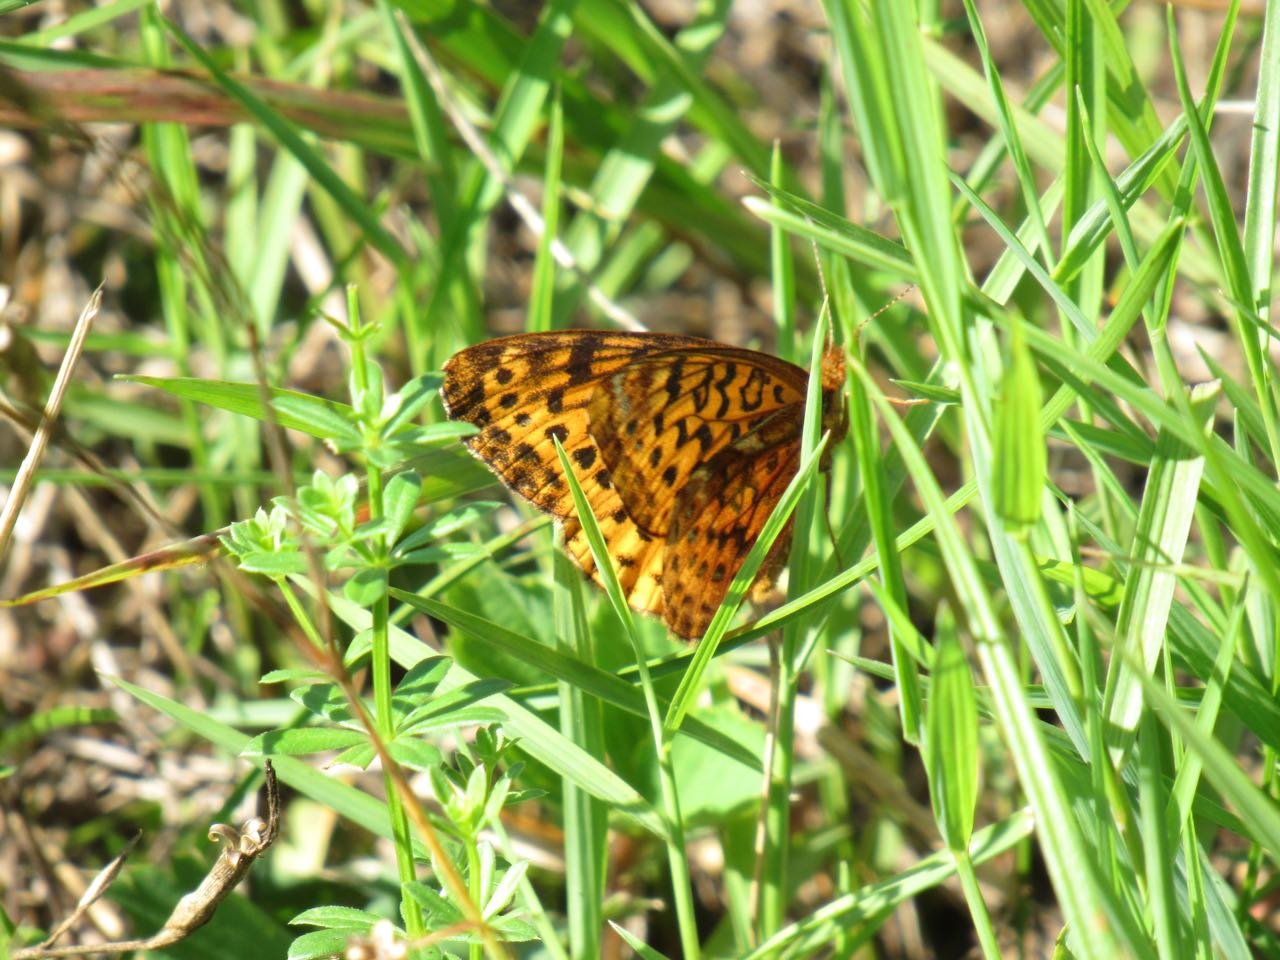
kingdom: Animalia
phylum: Arthropoda
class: Insecta
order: Lepidoptera
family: Nymphalidae
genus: Clossiana
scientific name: Clossiana toddi
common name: Meadow Fritillary
